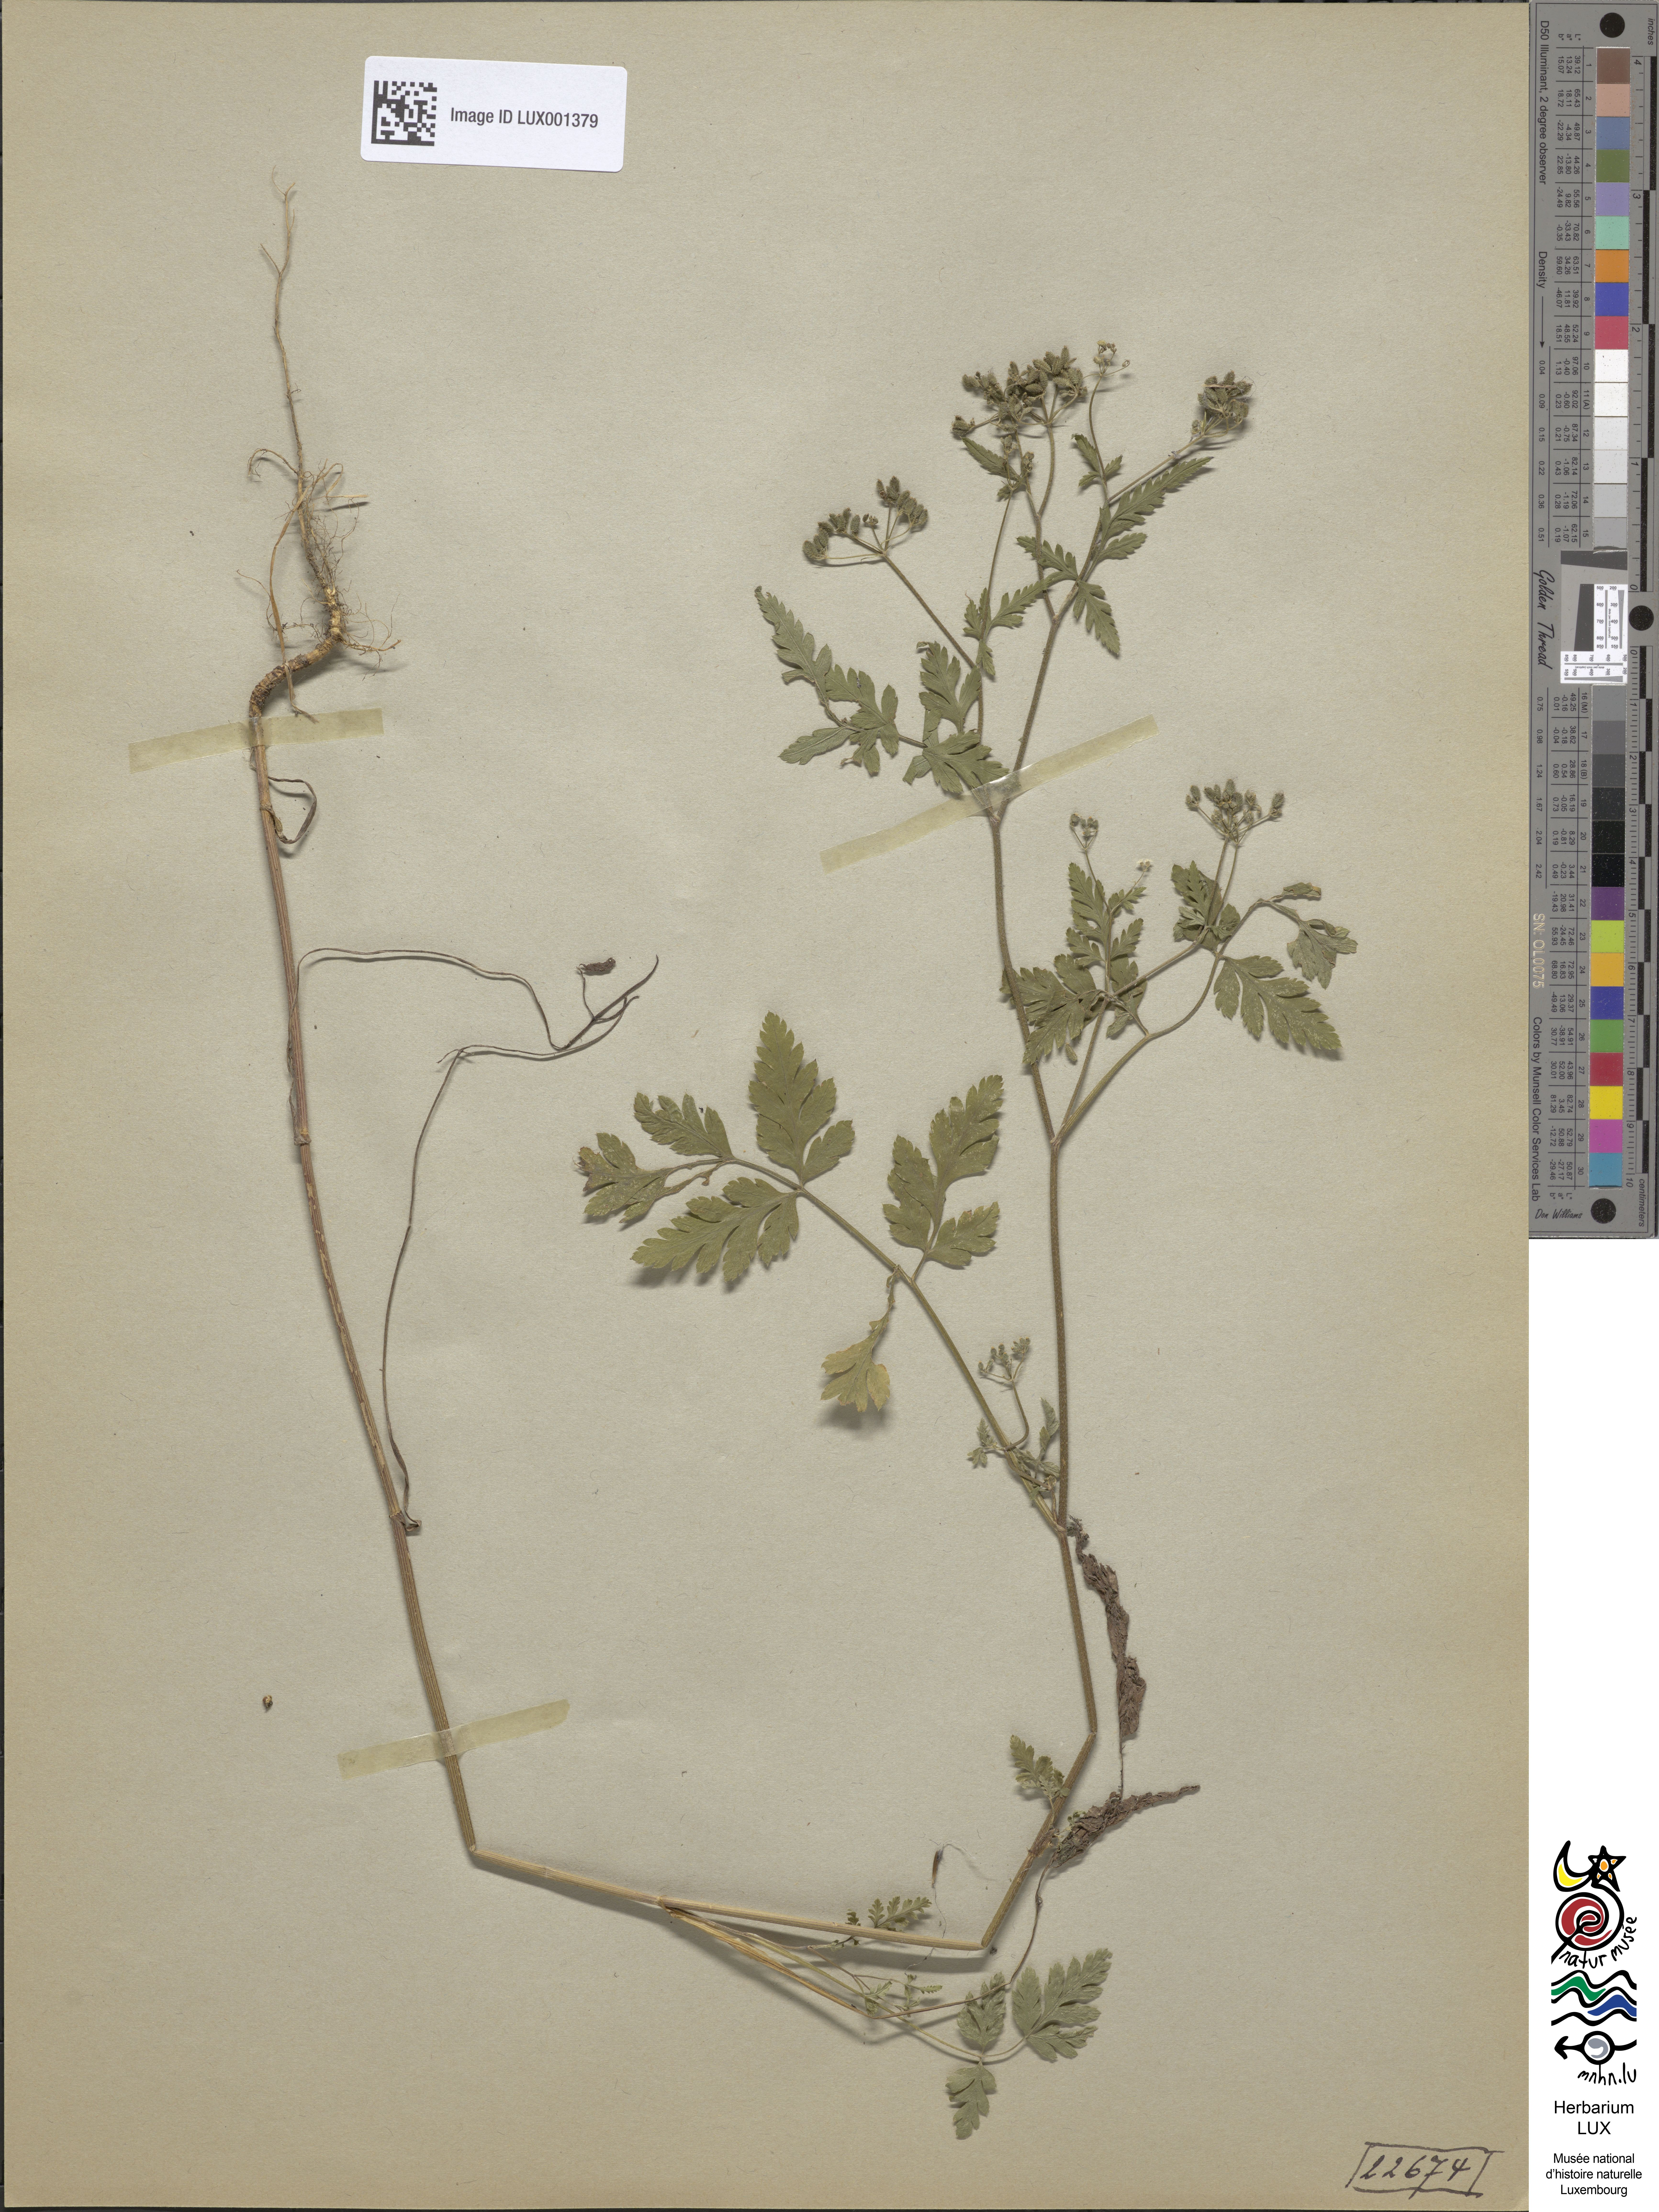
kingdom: Plantae
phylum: Tracheophyta
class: Magnoliopsida
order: Apiales
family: Apiaceae
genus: Torilis
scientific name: Torilis japonica
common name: Upright hedge-parsley
